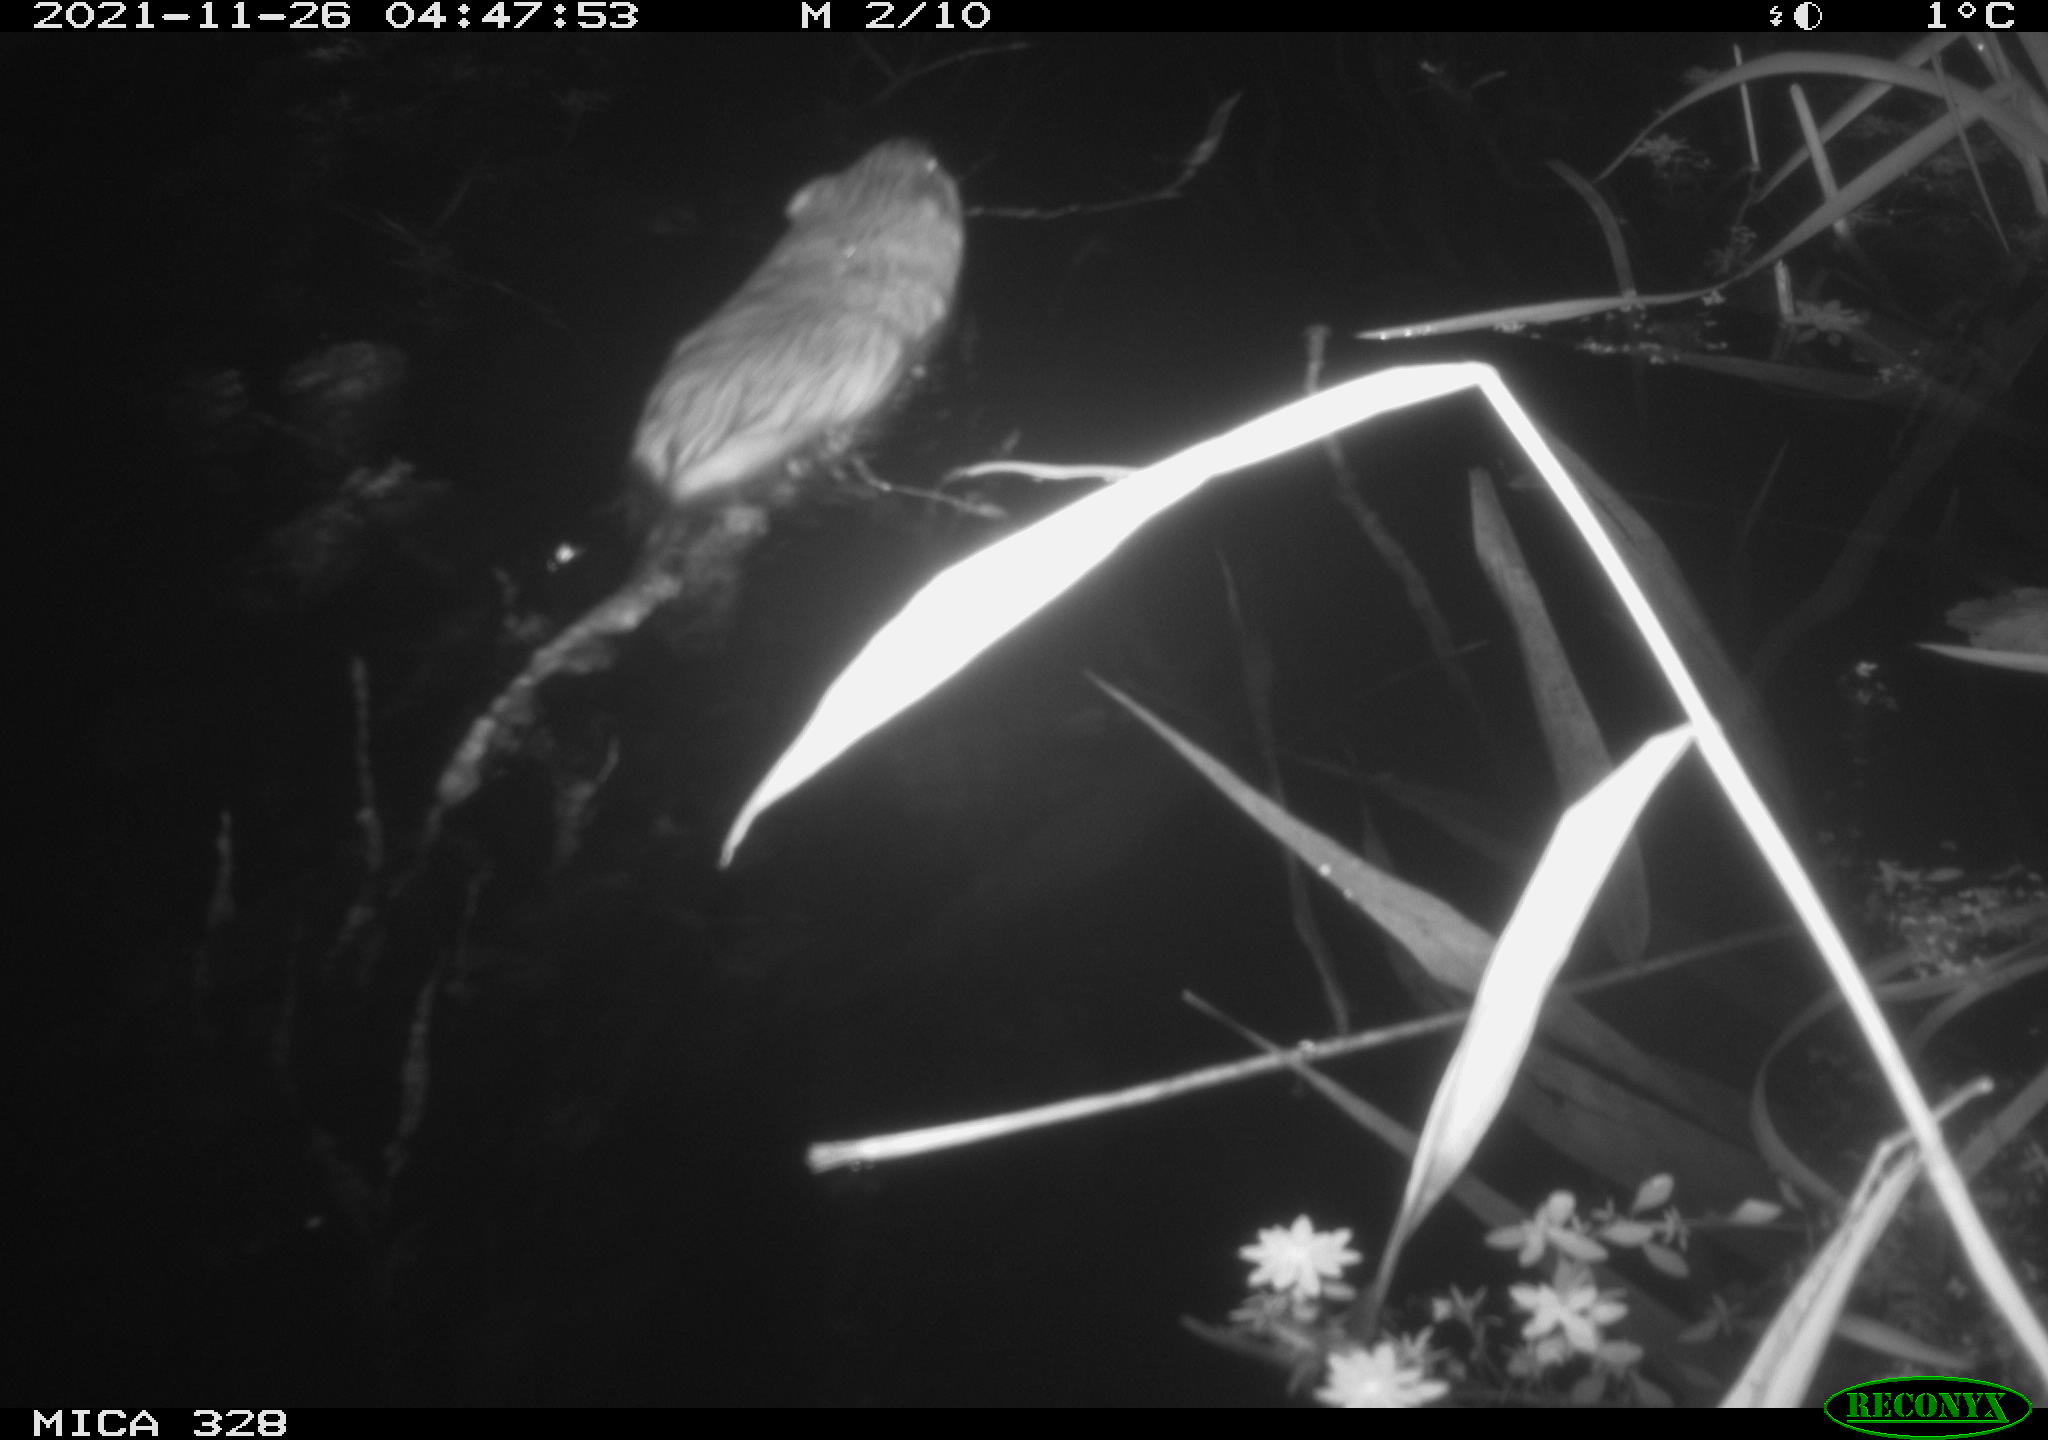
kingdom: Animalia
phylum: Chordata
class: Mammalia
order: Rodentia
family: Cricetidae
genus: Ondatra
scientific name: Ondatra zibethicus
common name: Muskrat
